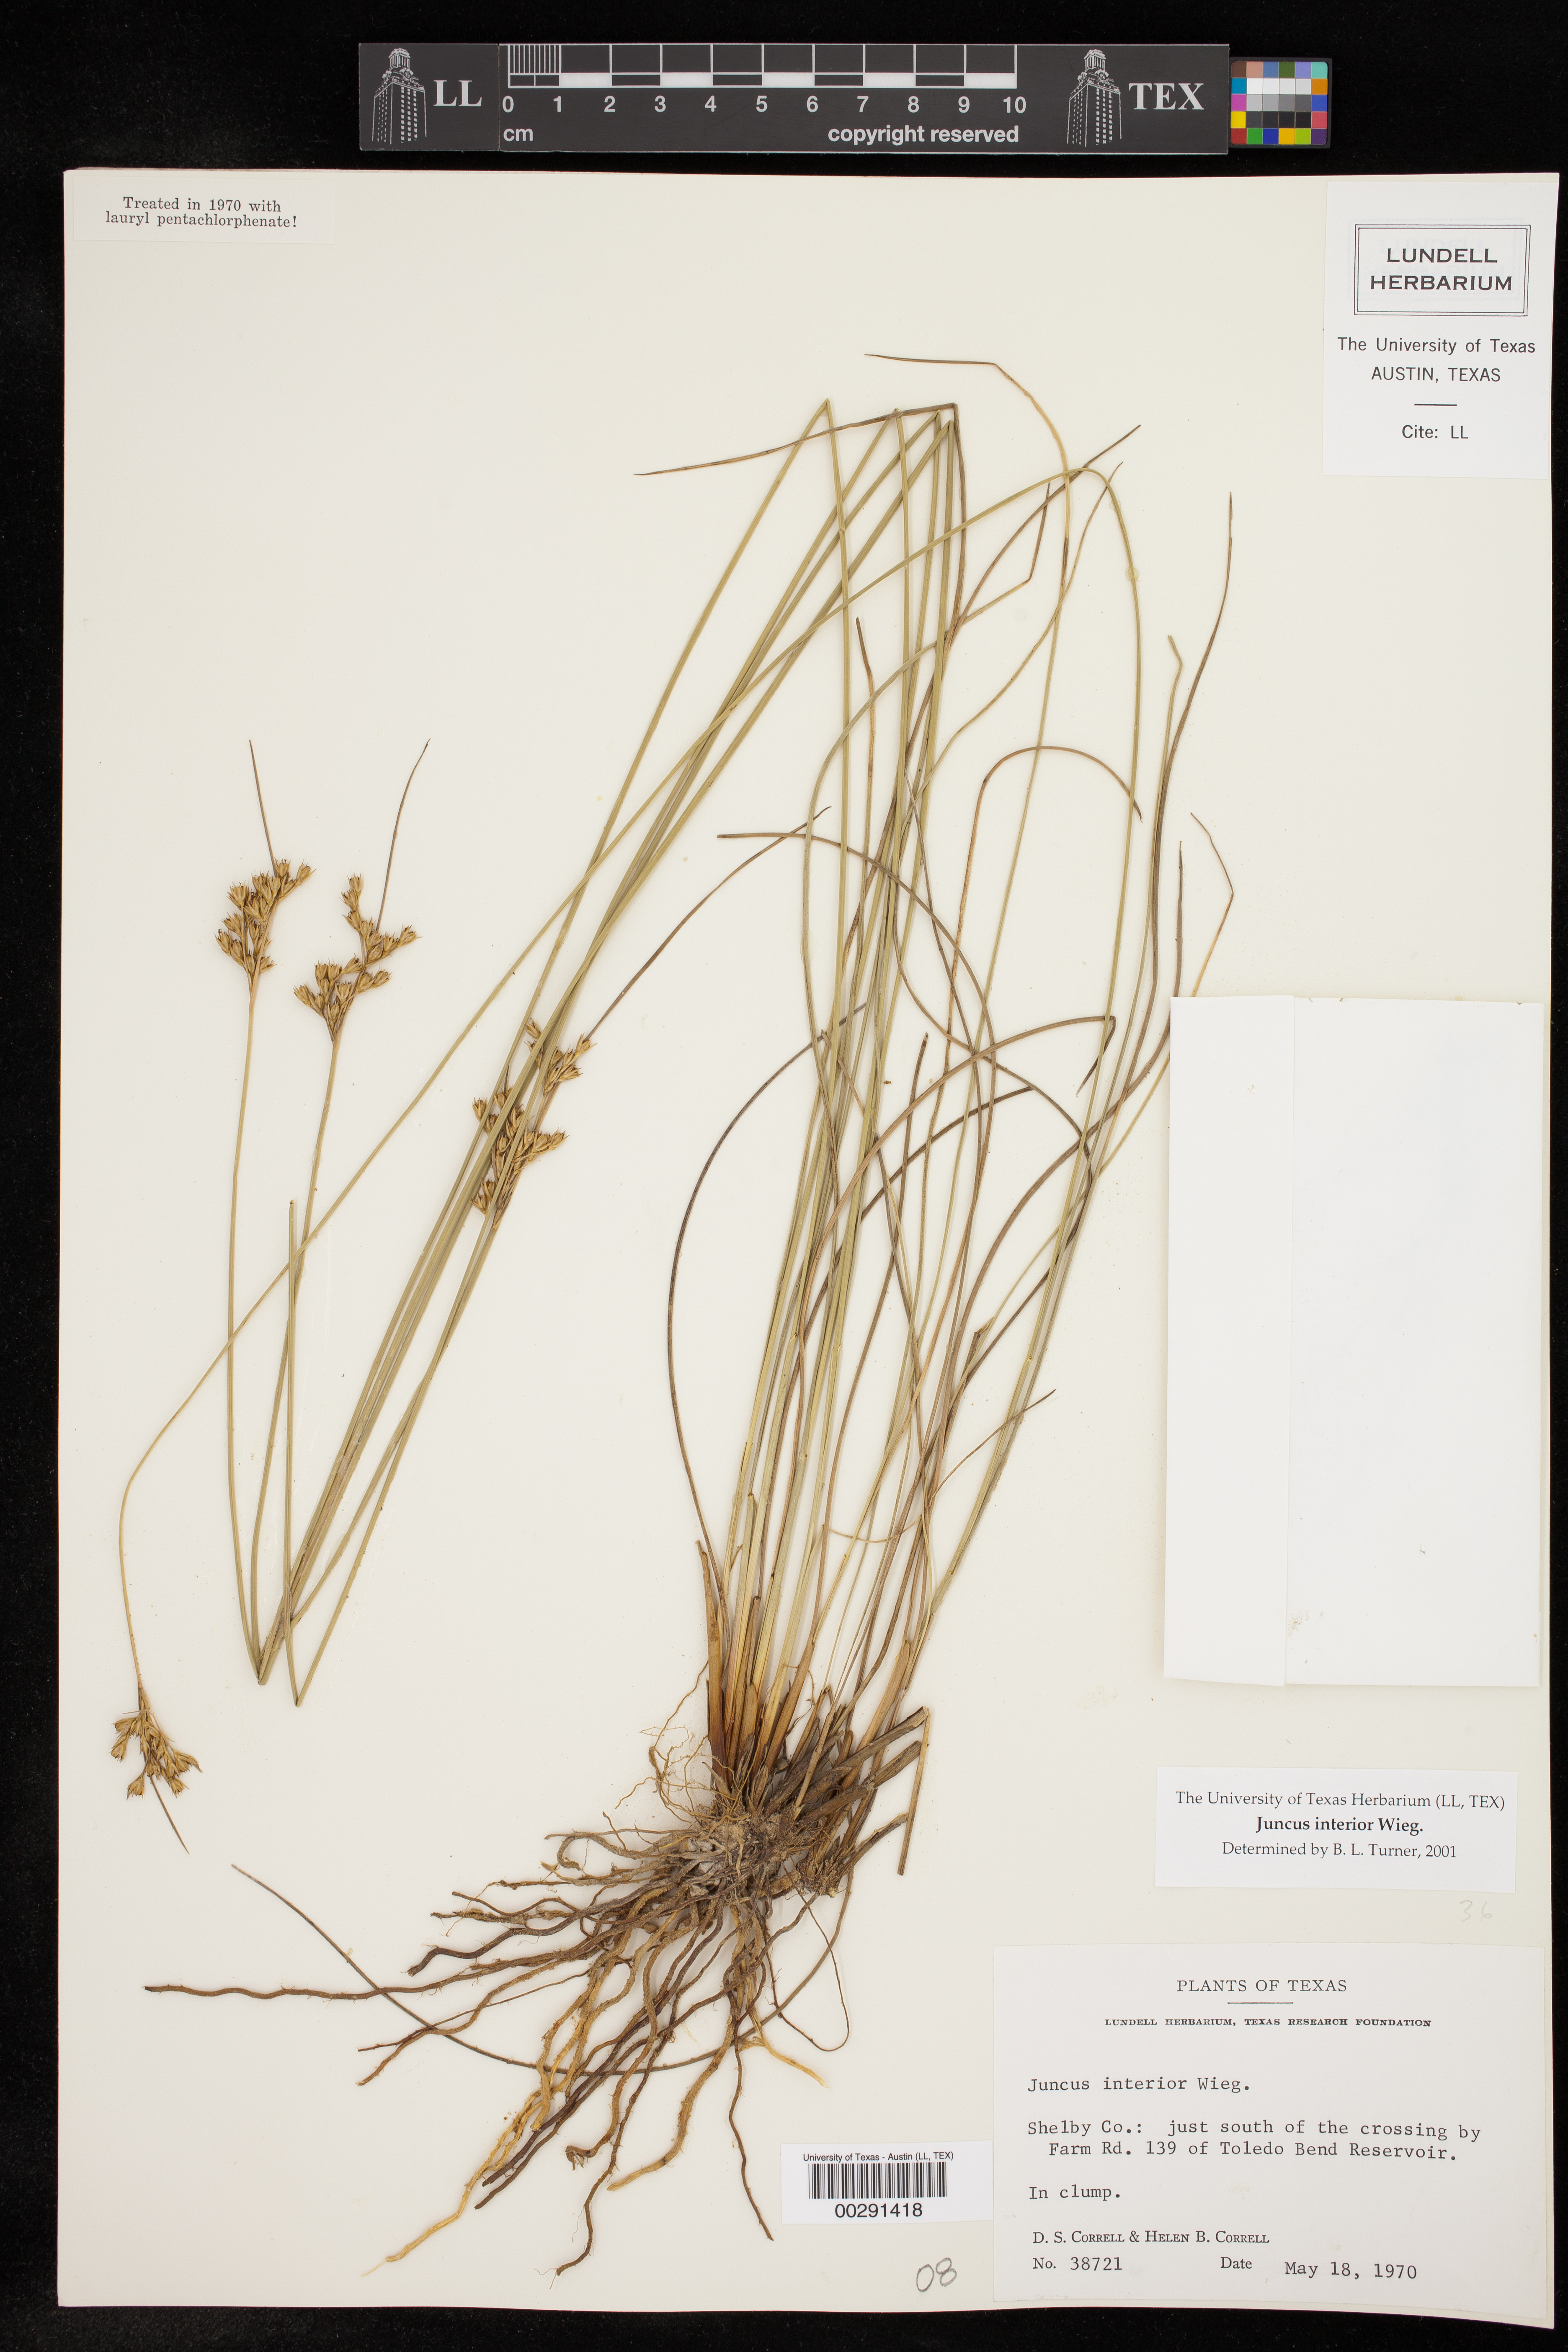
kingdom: Plantae
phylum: Tracheophyta
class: Liliopsida
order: Poales
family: Juncaceae
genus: Juncus
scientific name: Juncus interior
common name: Interior rush
